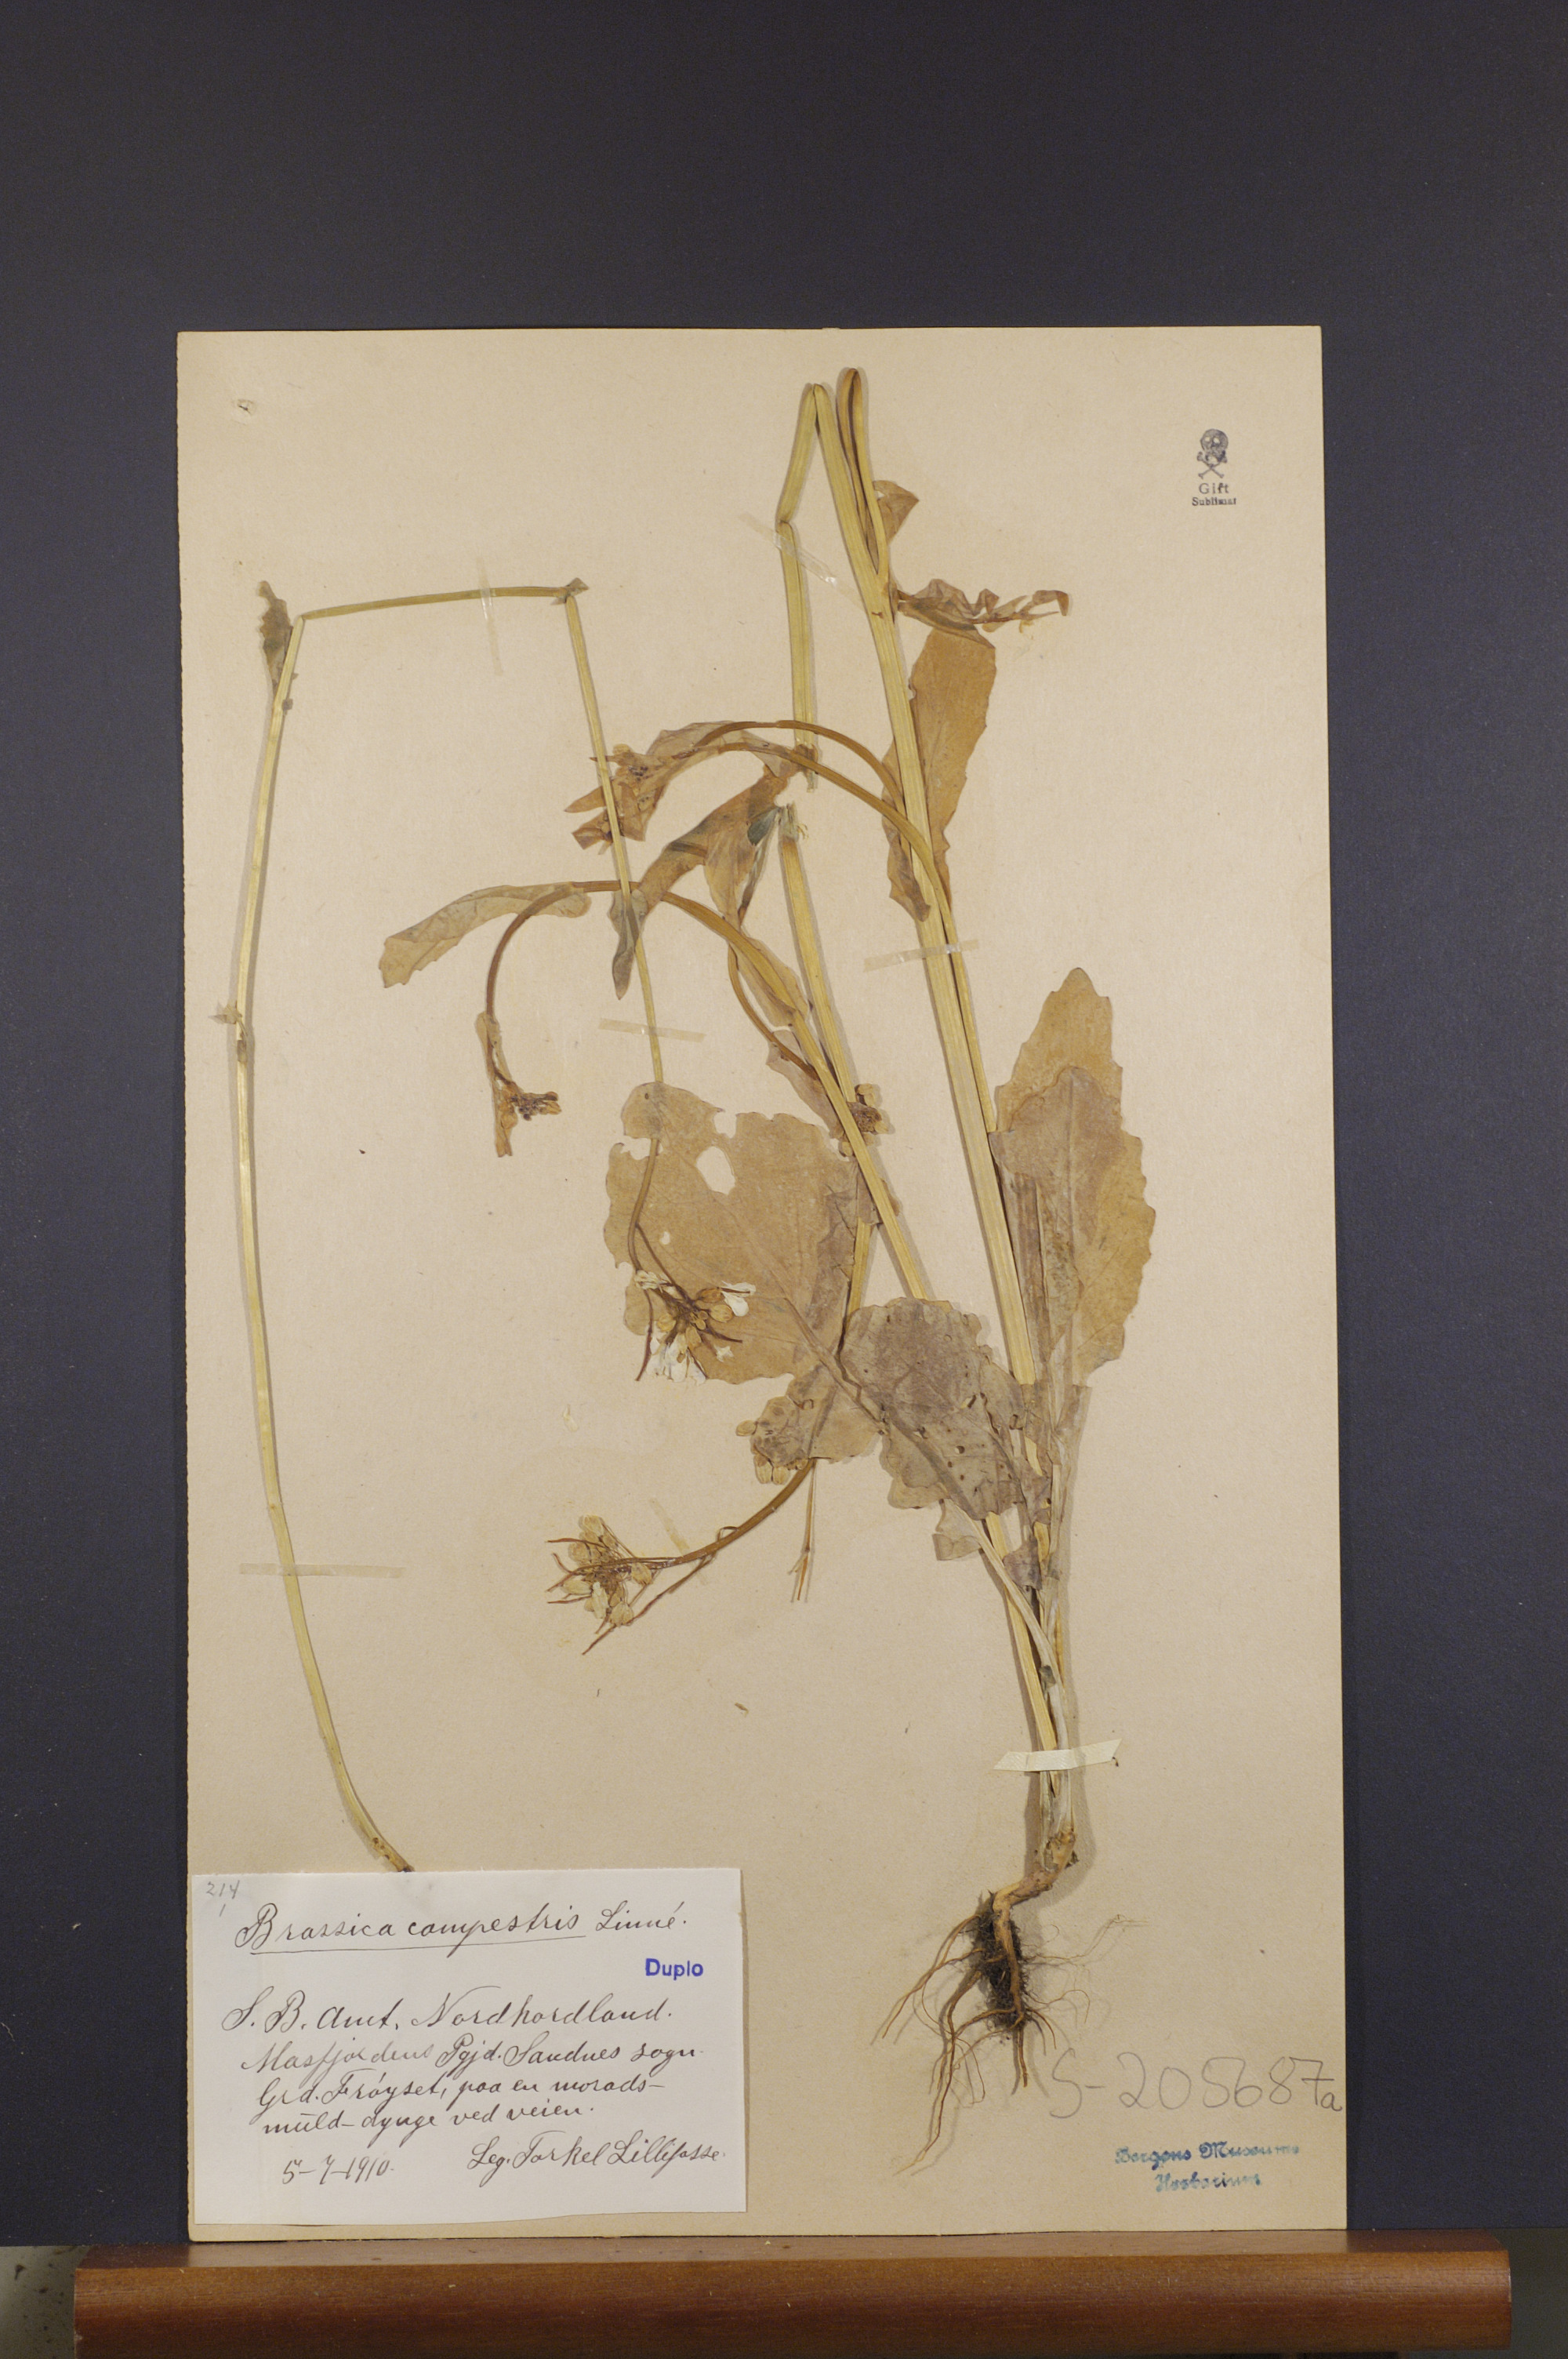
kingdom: Plantae
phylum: Tracheophyta
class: Magnoliopsida
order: Brassicales
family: Brassicaceae
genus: Brassica
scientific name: Brassica rapa
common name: Field mustard
